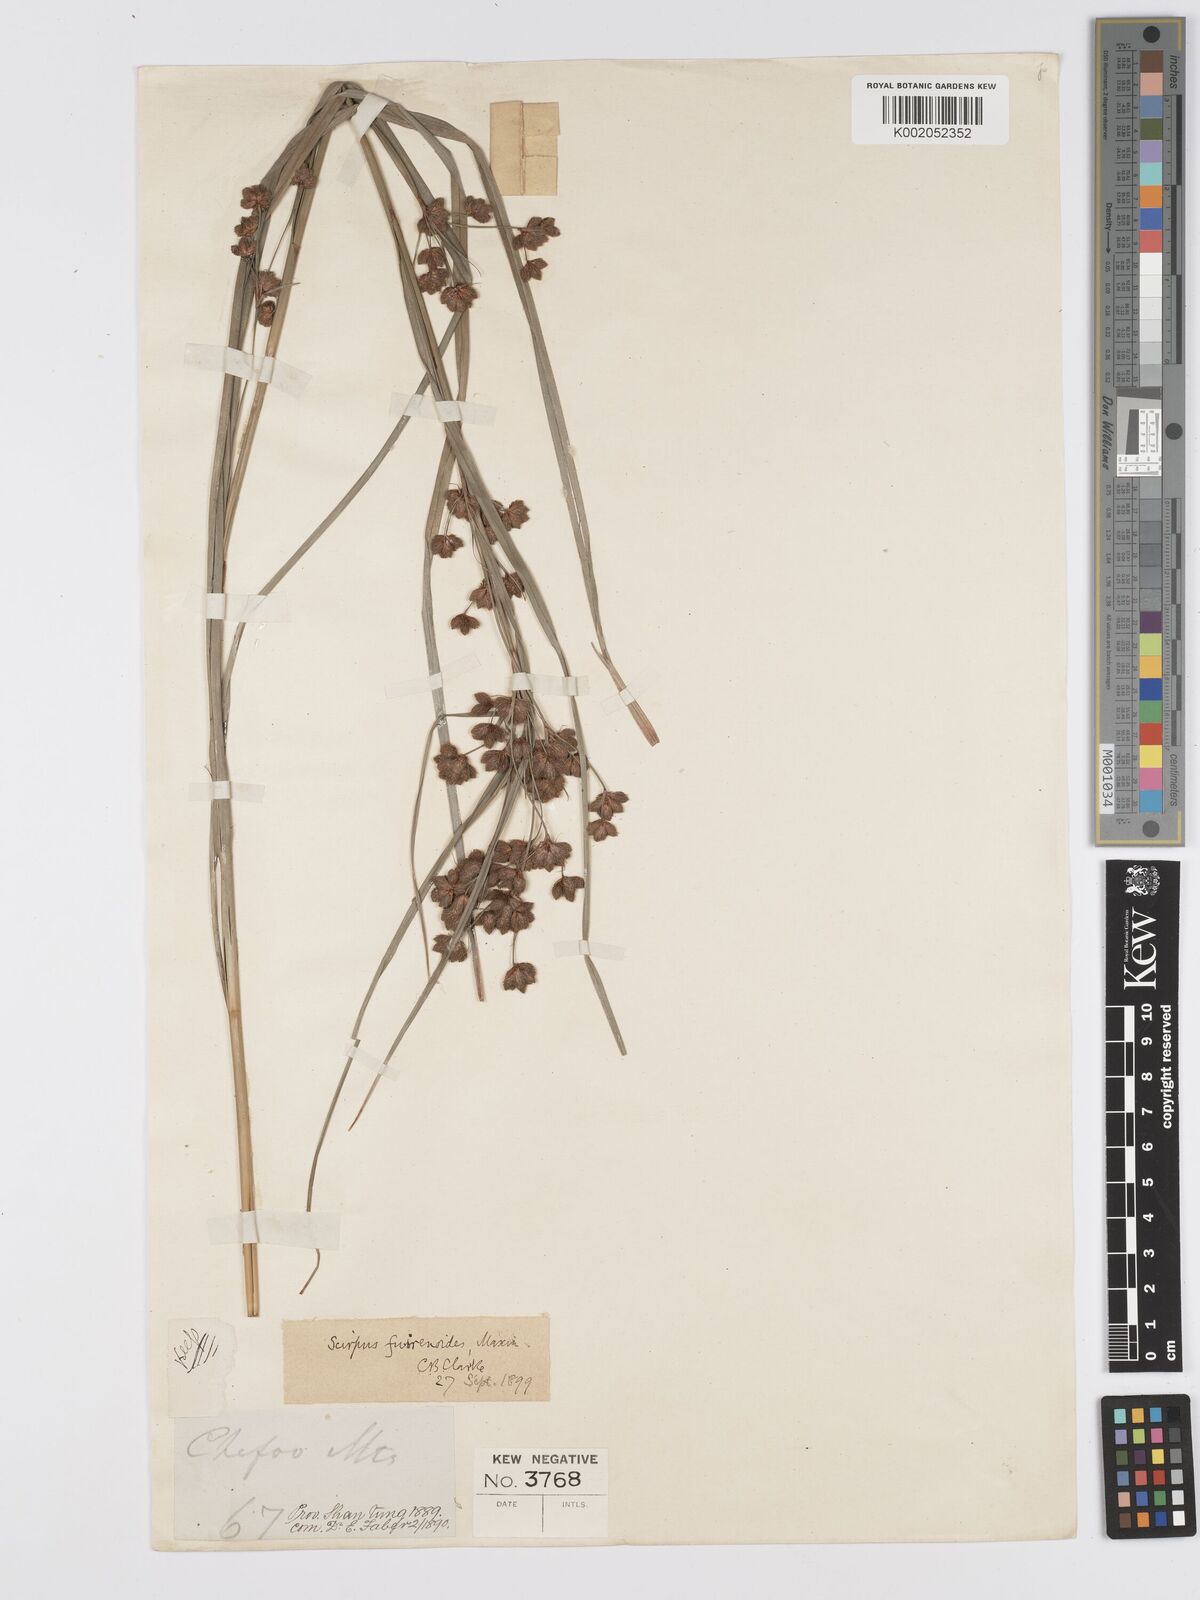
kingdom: Plantae
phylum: Tracheophyta
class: Liliopsida
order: Poales
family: Cyperaceae
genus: Scirpus
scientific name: Scirpus fuirenoides
